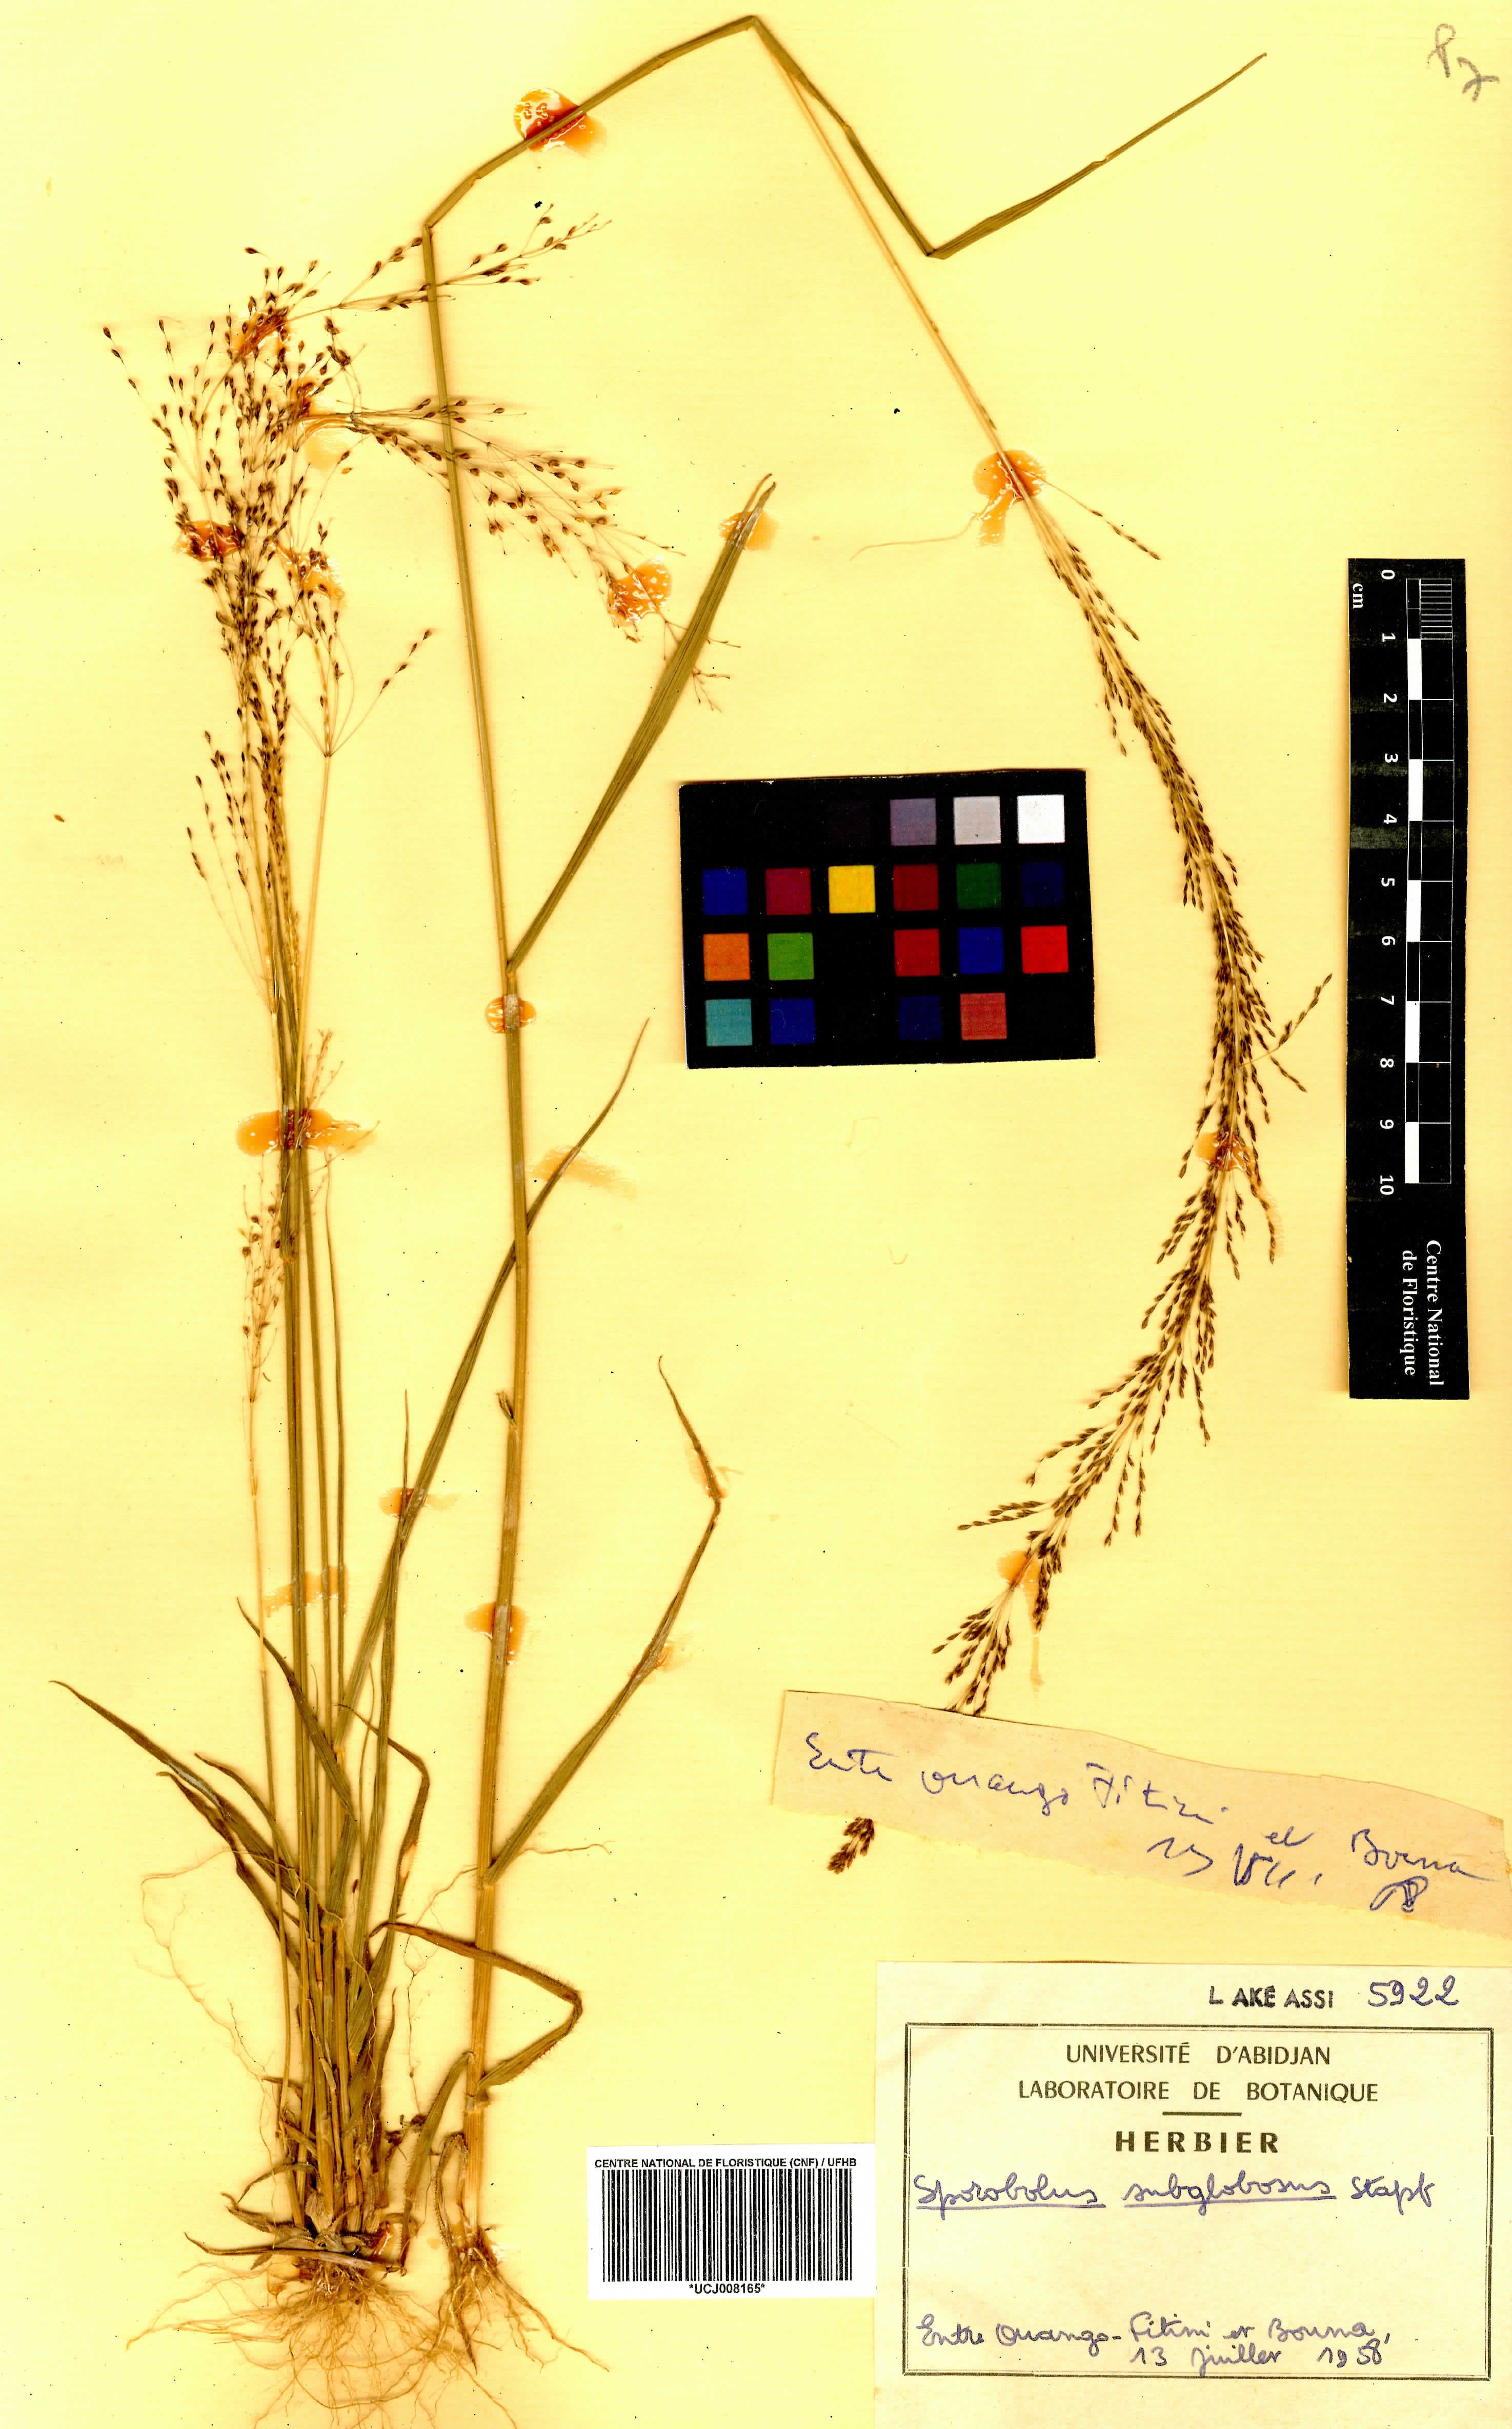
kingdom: Plantae
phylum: Tracheophyta
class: Liliopsida
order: Poales
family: Poaceae
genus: Sporobolus
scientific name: Sporobolus subglobosus
